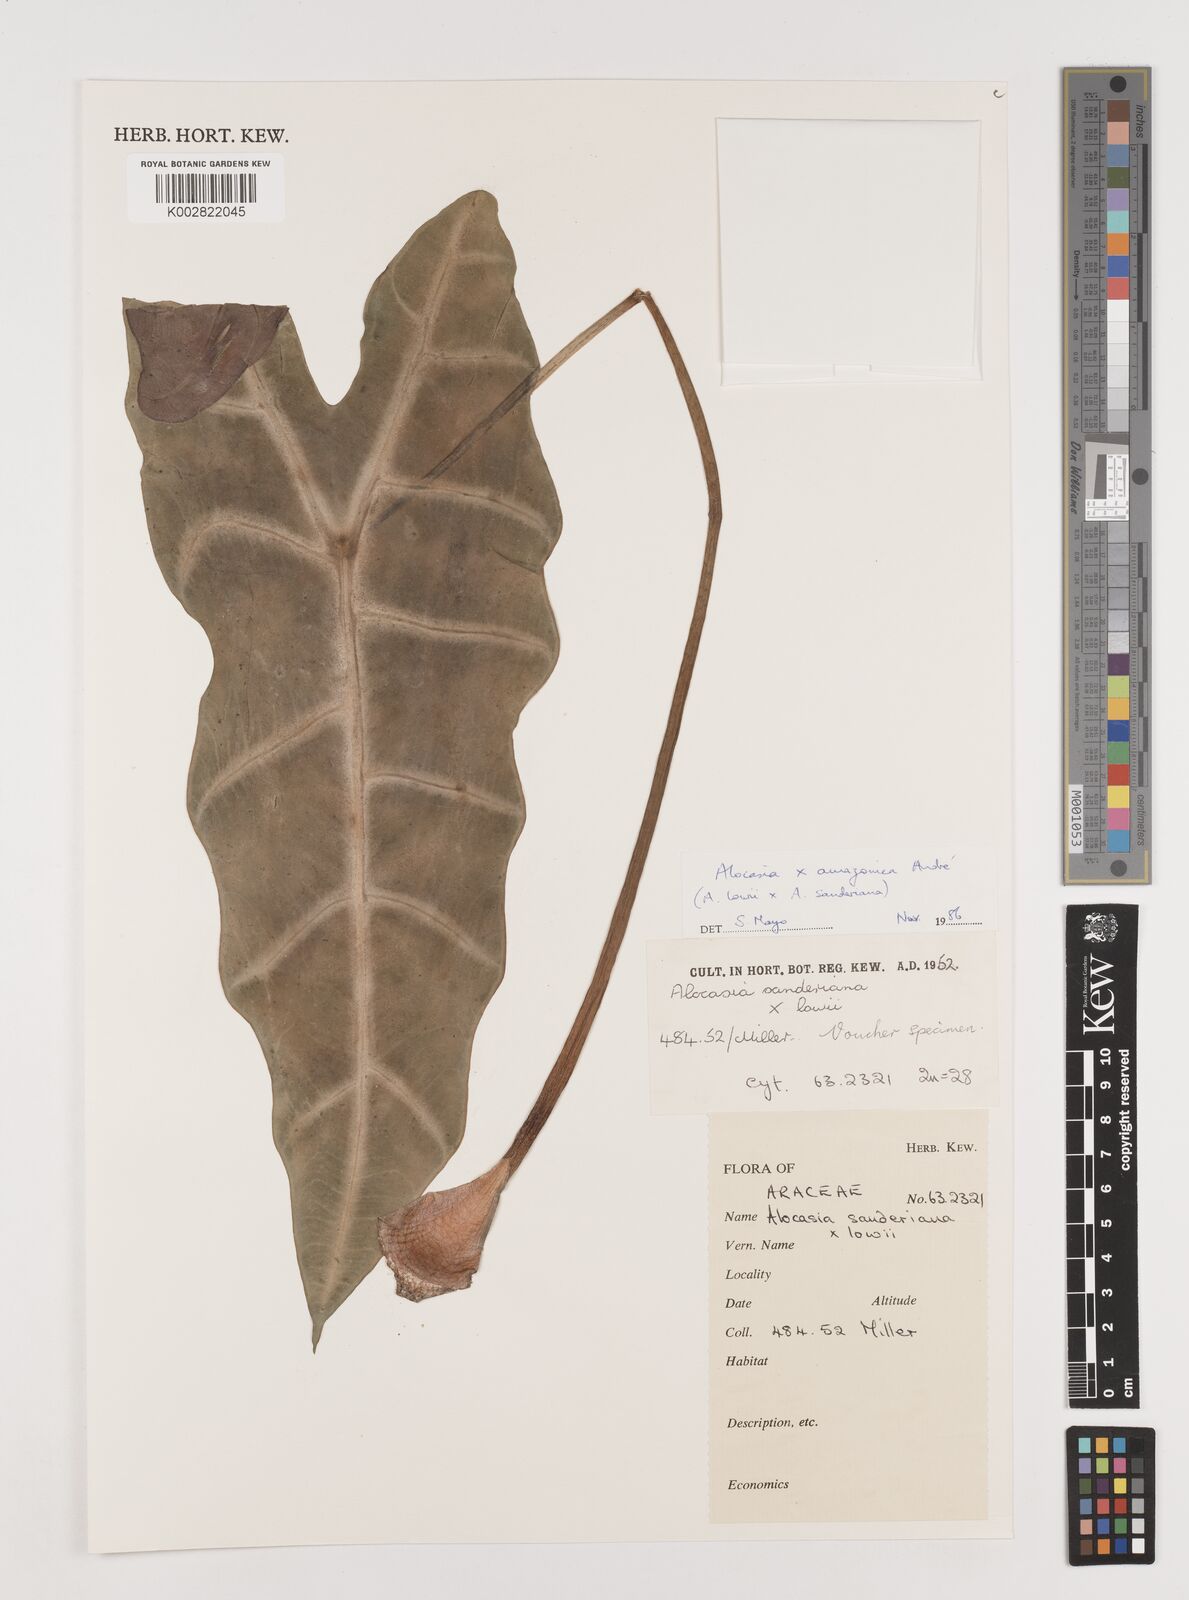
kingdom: Plantae
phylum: Tracheophyta
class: Liliopsida
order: Alismatales
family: Araceae
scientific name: Araceae
